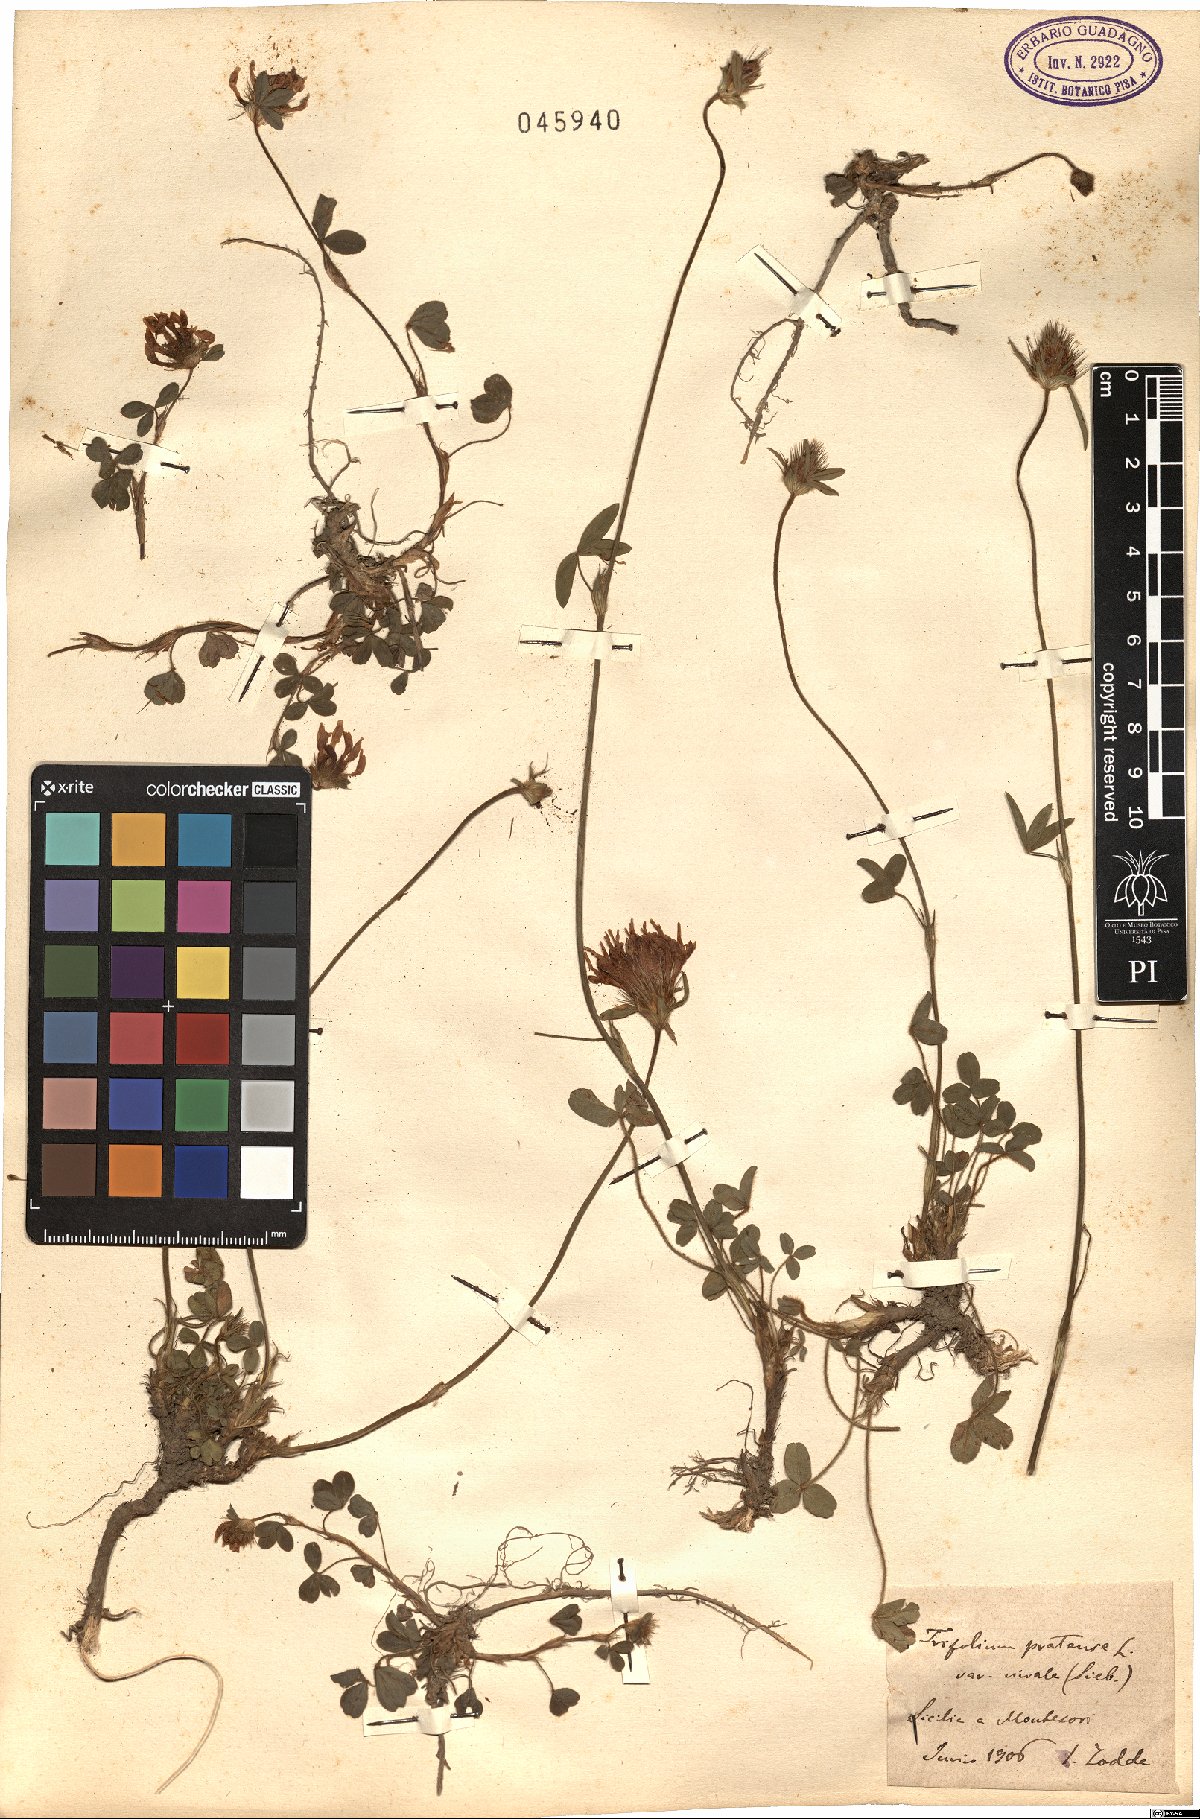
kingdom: Plantae
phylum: Tracheophyta
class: Magnoliopsida
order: Fabales
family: Fabaceae
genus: Trifolium
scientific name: Trifolium pratense
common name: Red clover
